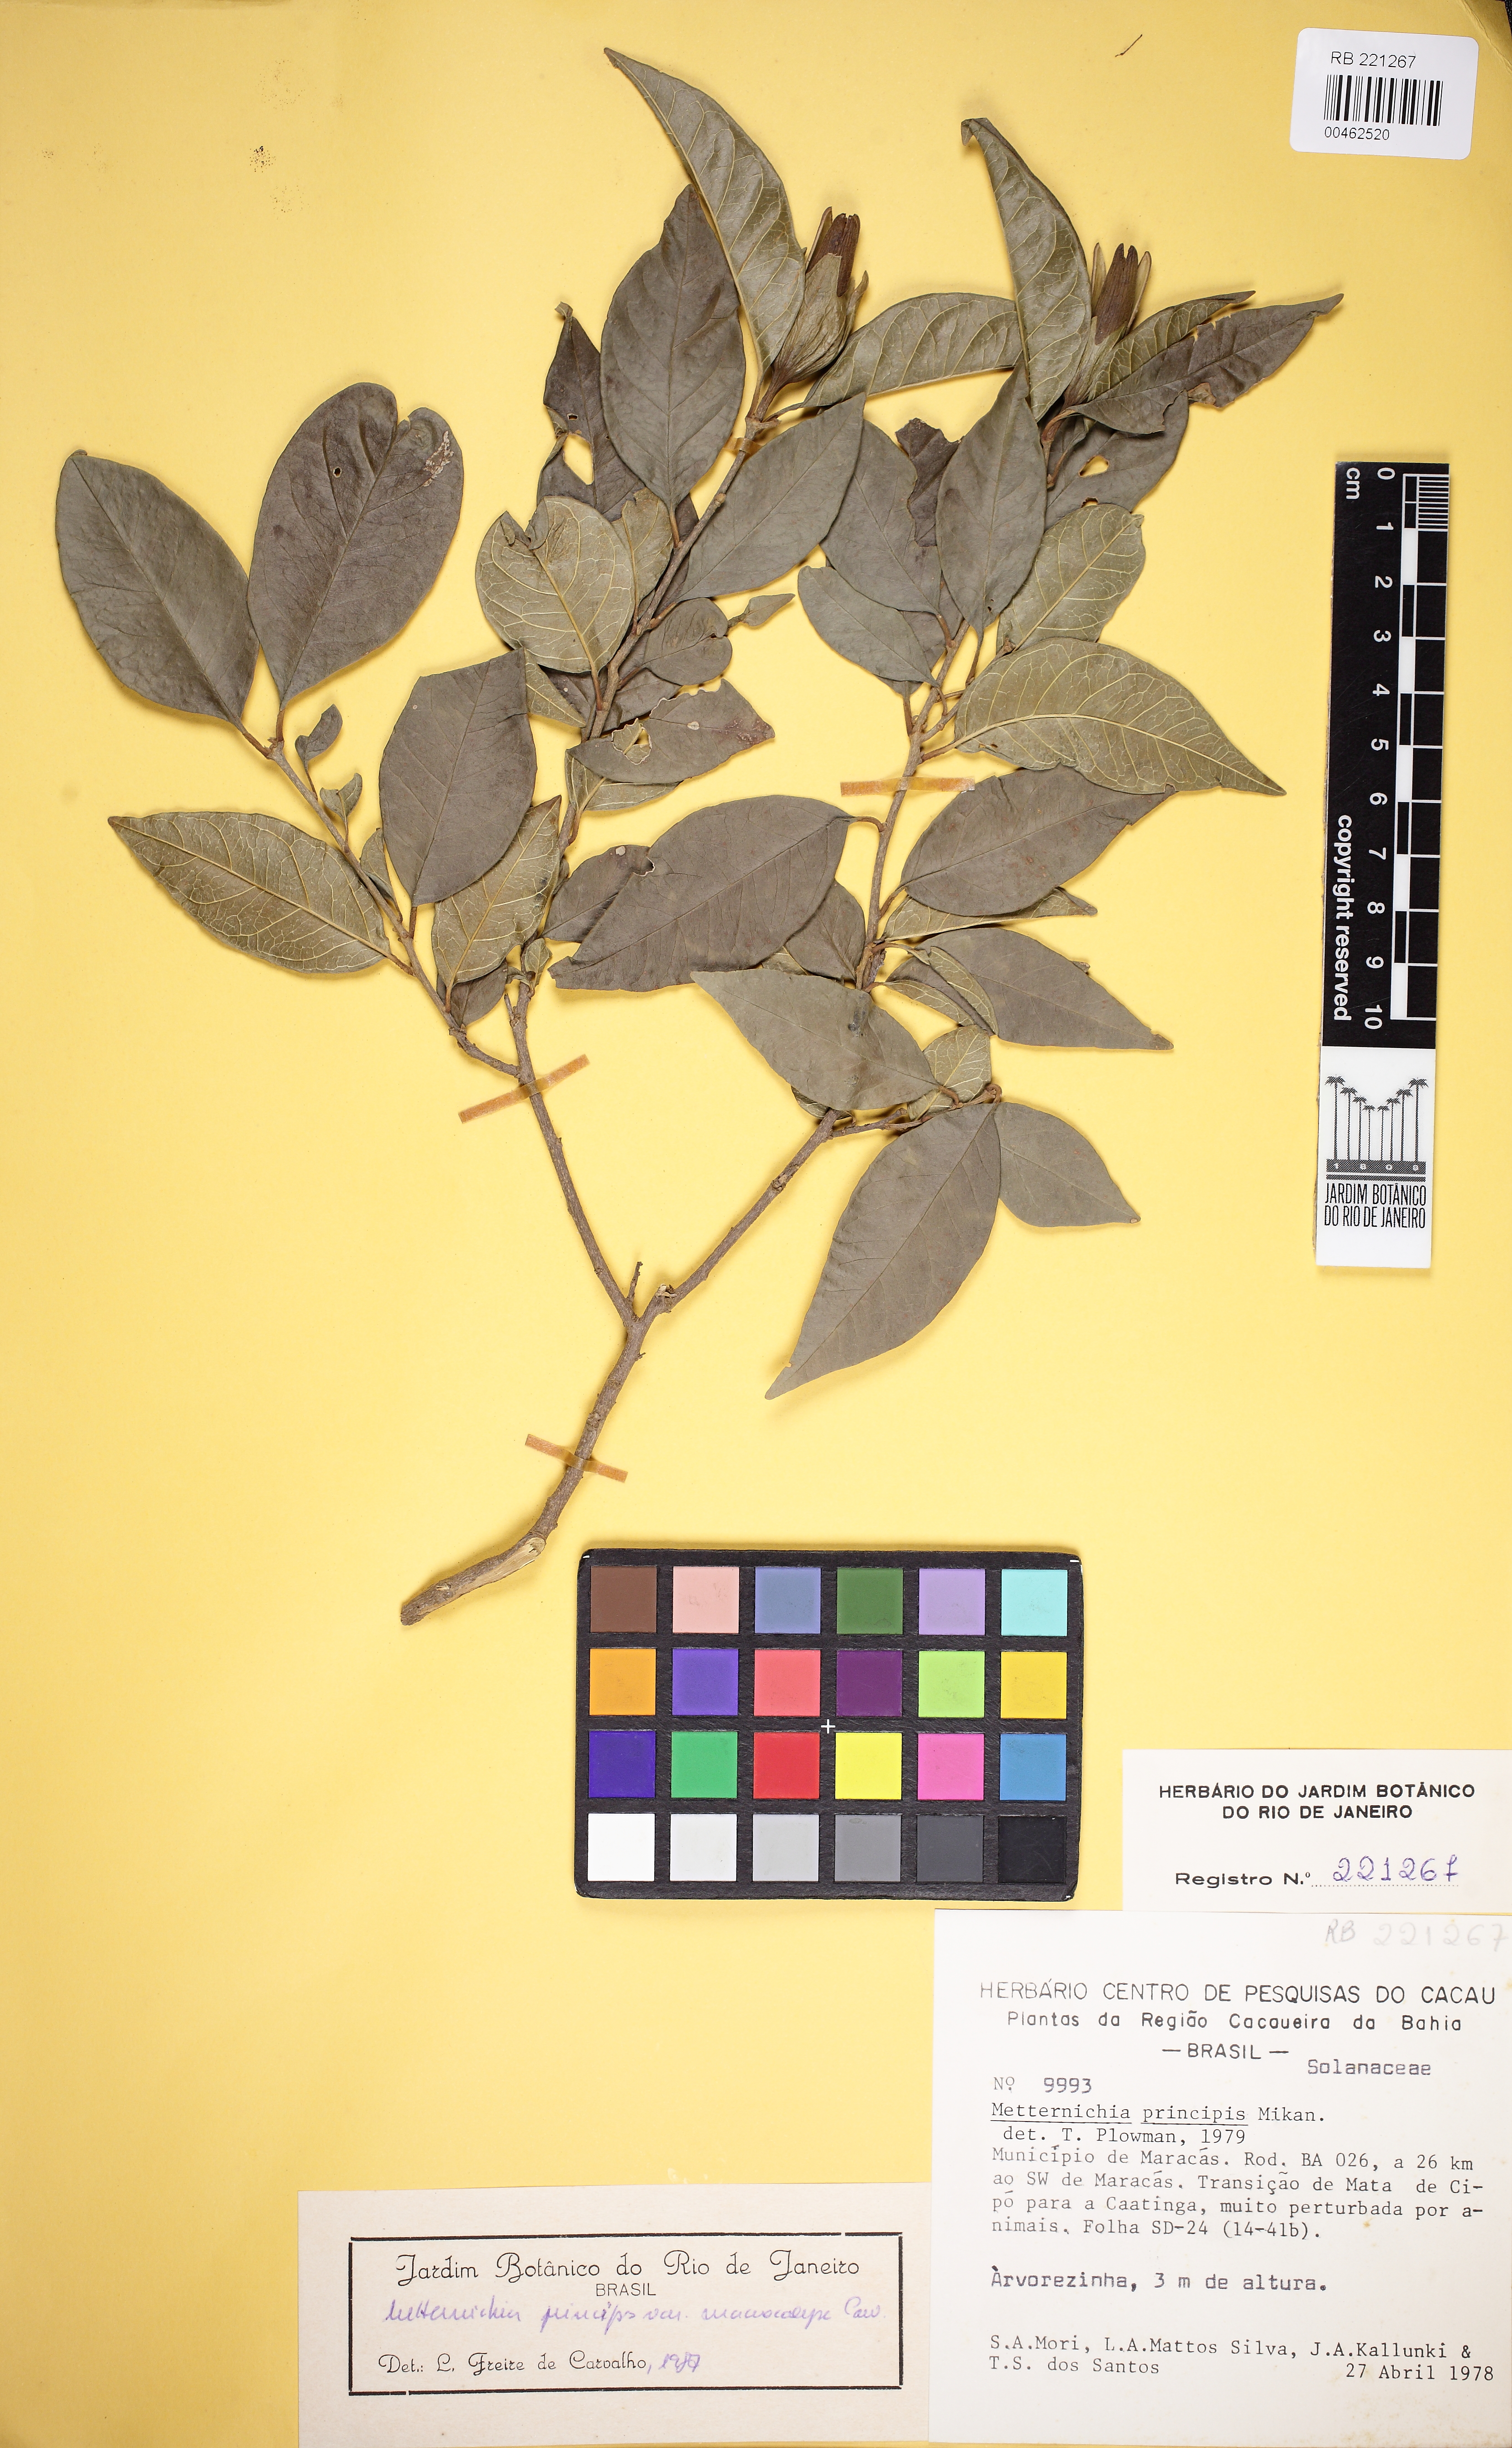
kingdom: Plantae
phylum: Tracheophyta
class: Magnoliopsida
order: Solanales
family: Solanaceae
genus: Metternichia
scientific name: Metternichia princeps
